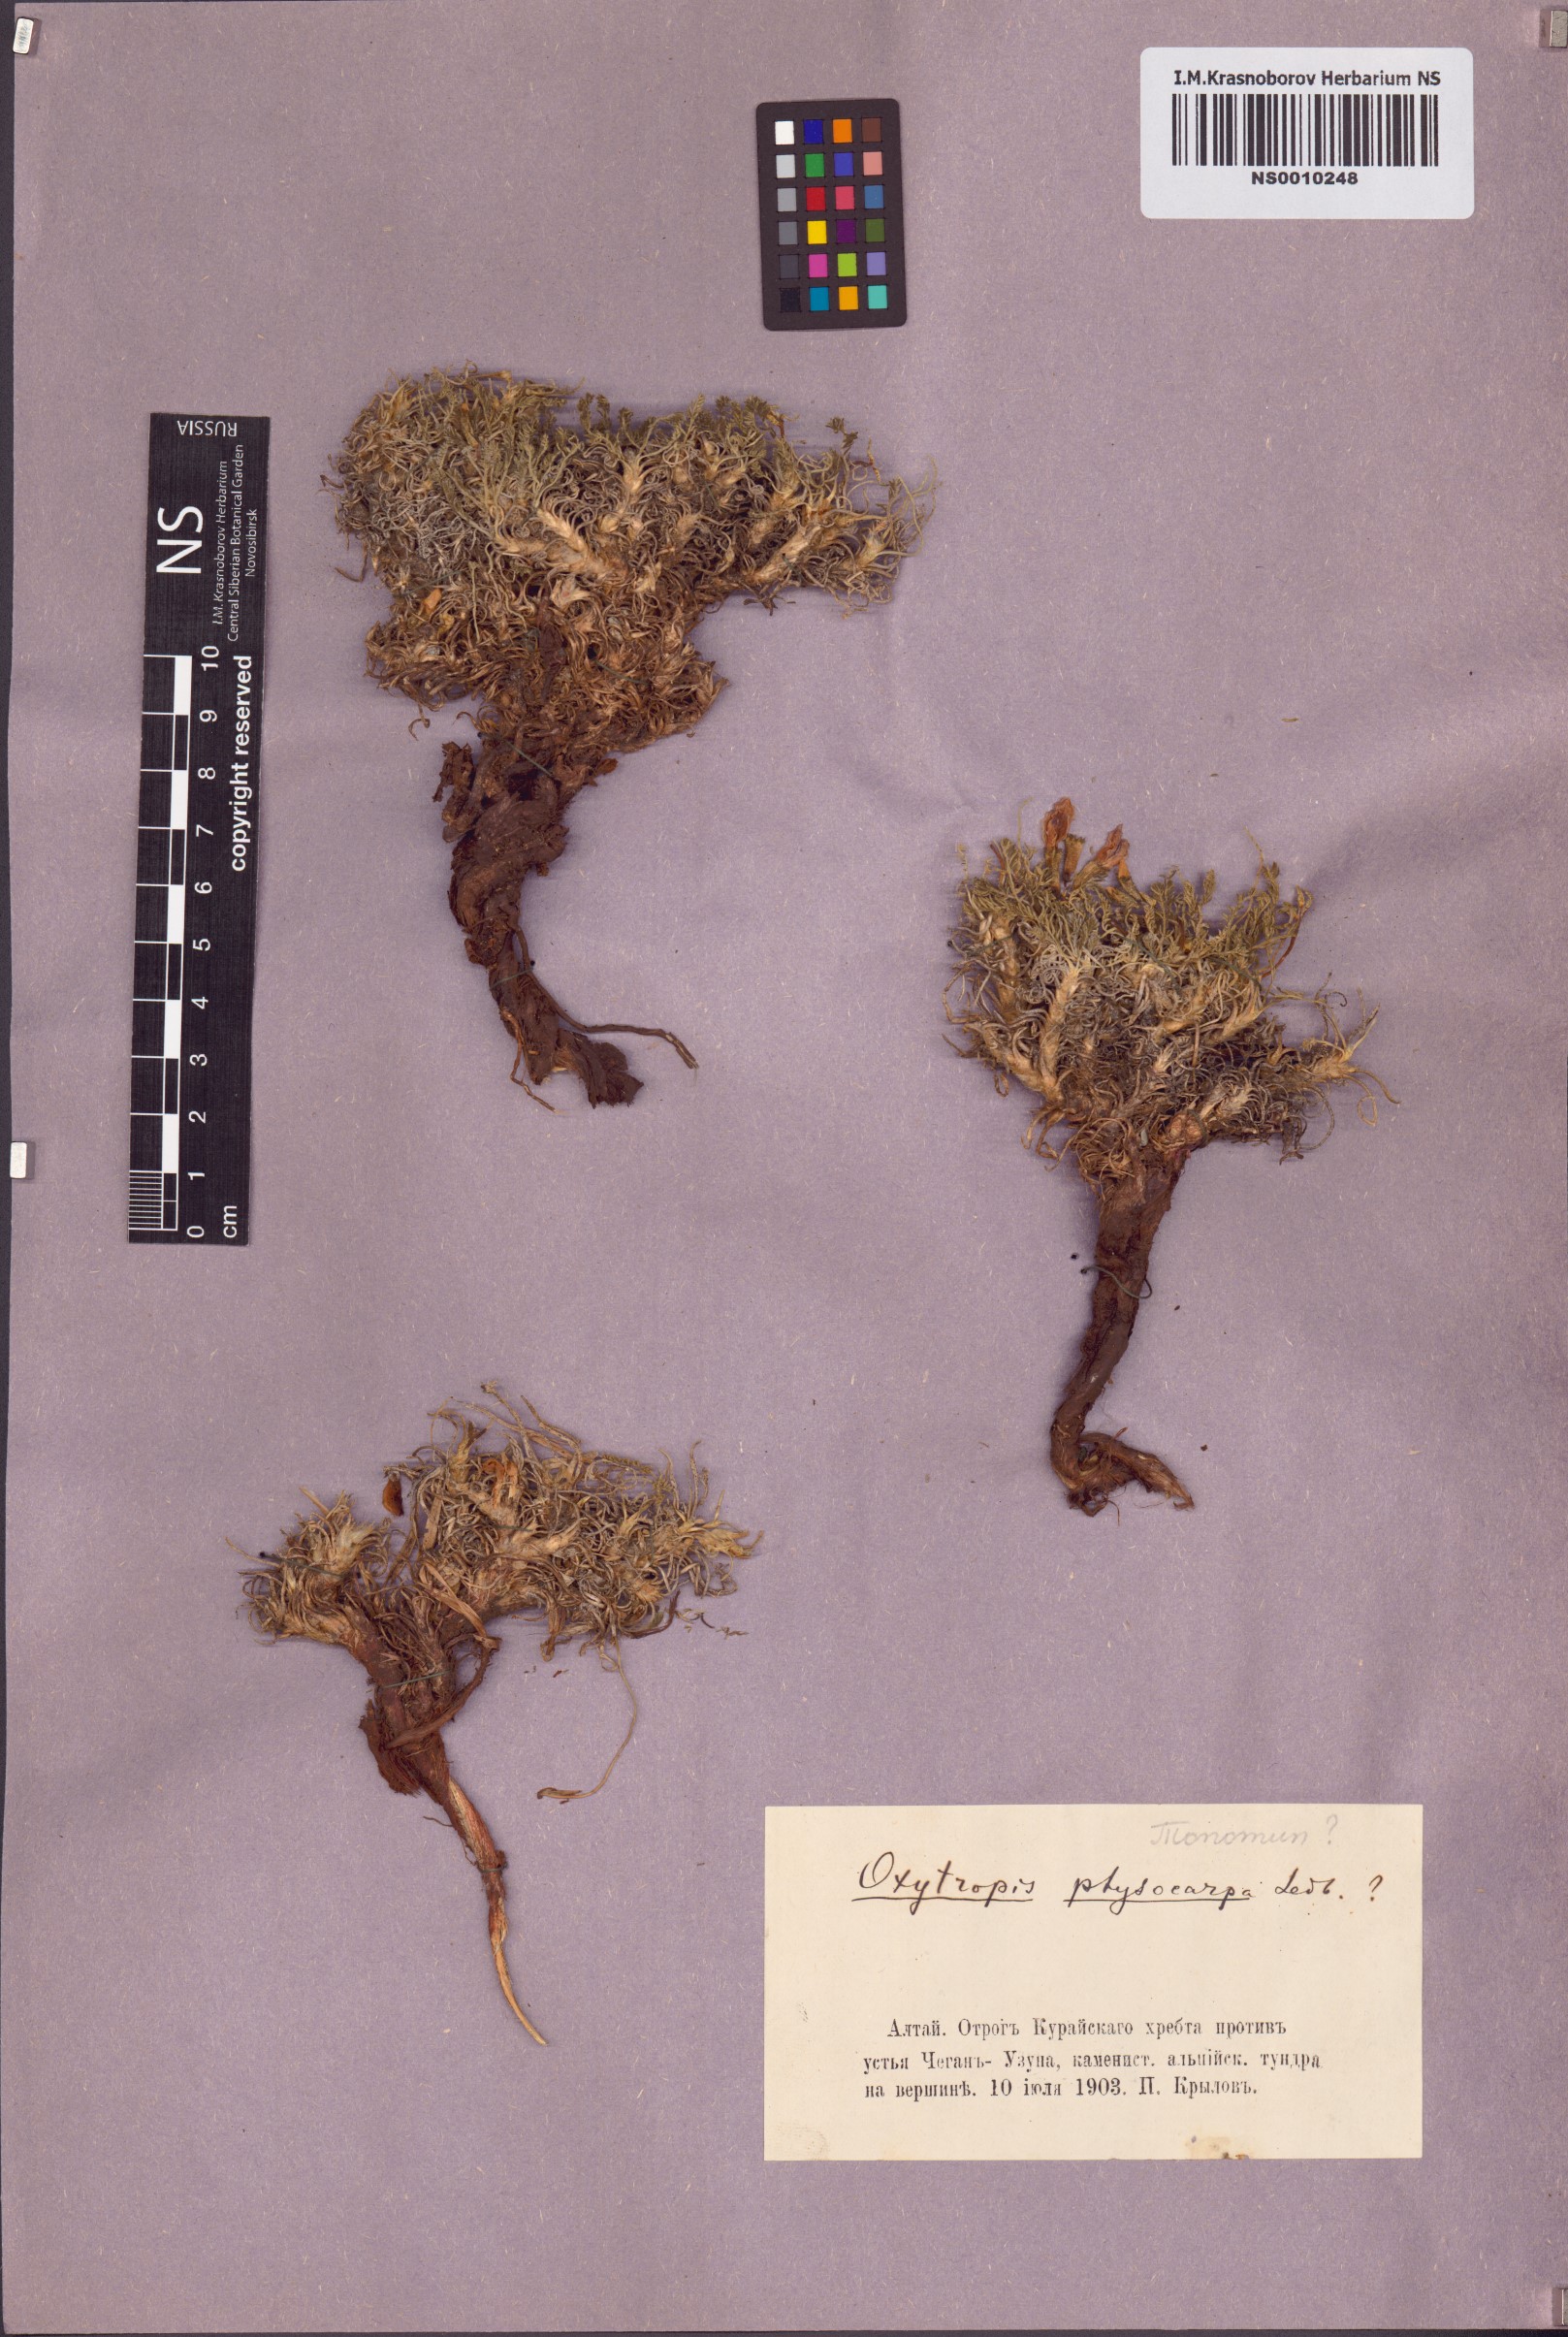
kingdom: Plantae
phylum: Tracheophyta
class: Magnoliopsida
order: Fabales
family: Fabaceae
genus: Oxytropis
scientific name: Oxytropis physocarpa
